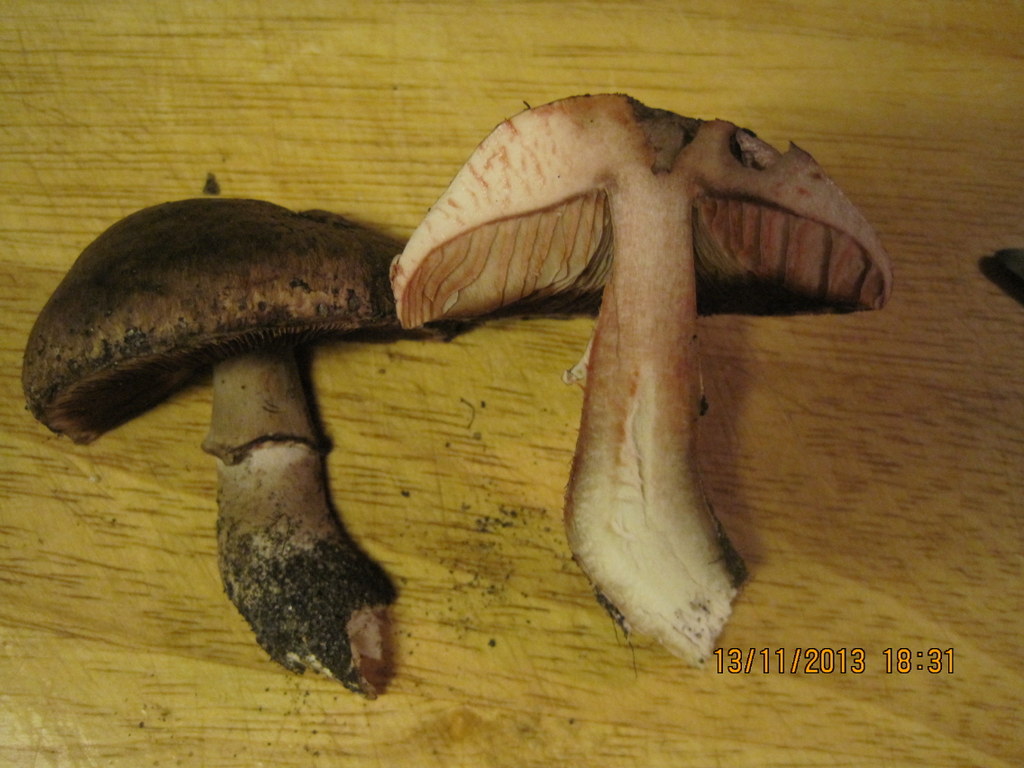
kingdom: Fungi
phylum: Basidiomycota
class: Agaricomycetes
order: Agaricales
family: Agaricaceae
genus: Agaricus
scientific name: Agaricus sylvaticus
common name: lille blod-champignon
